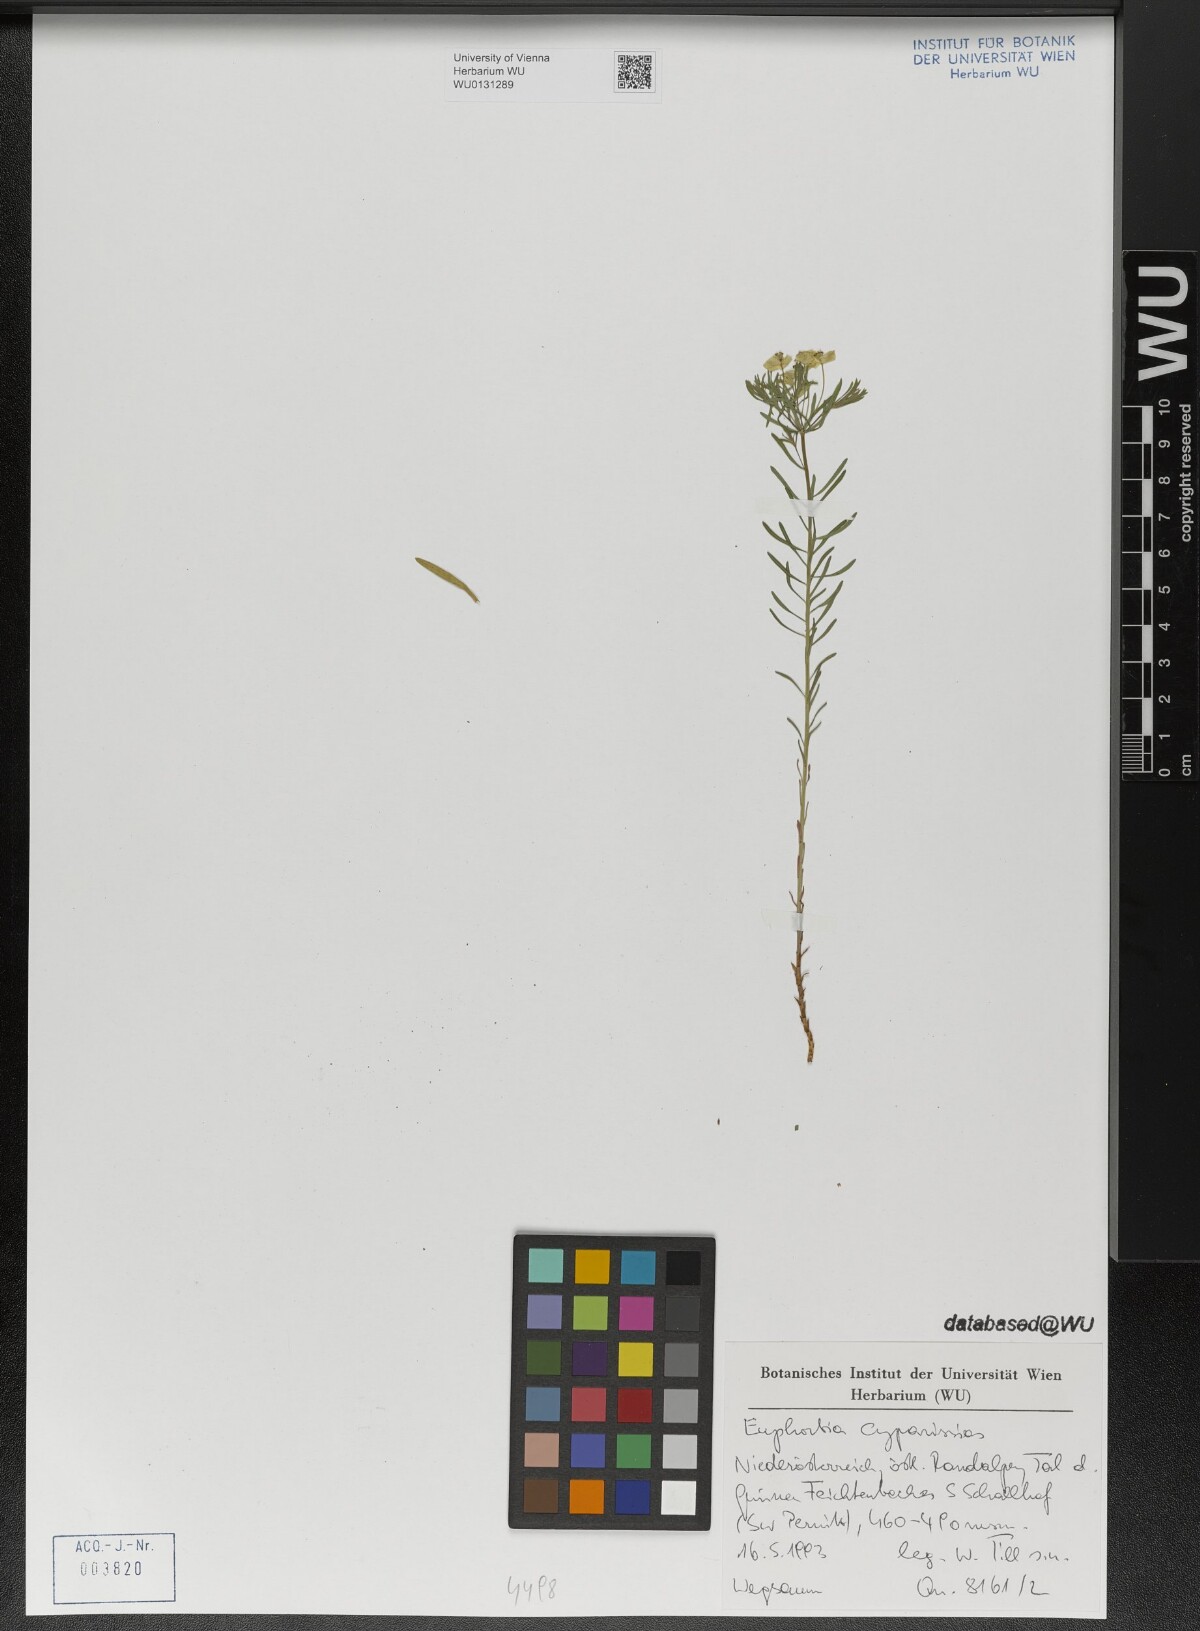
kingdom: Plantae
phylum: Tracheophyta
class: Magnoliopsida
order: Malpighiales
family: Euphorbiaceae
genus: Euphorbia
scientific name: Euphorbia cyparissias
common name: Cypress spurge
